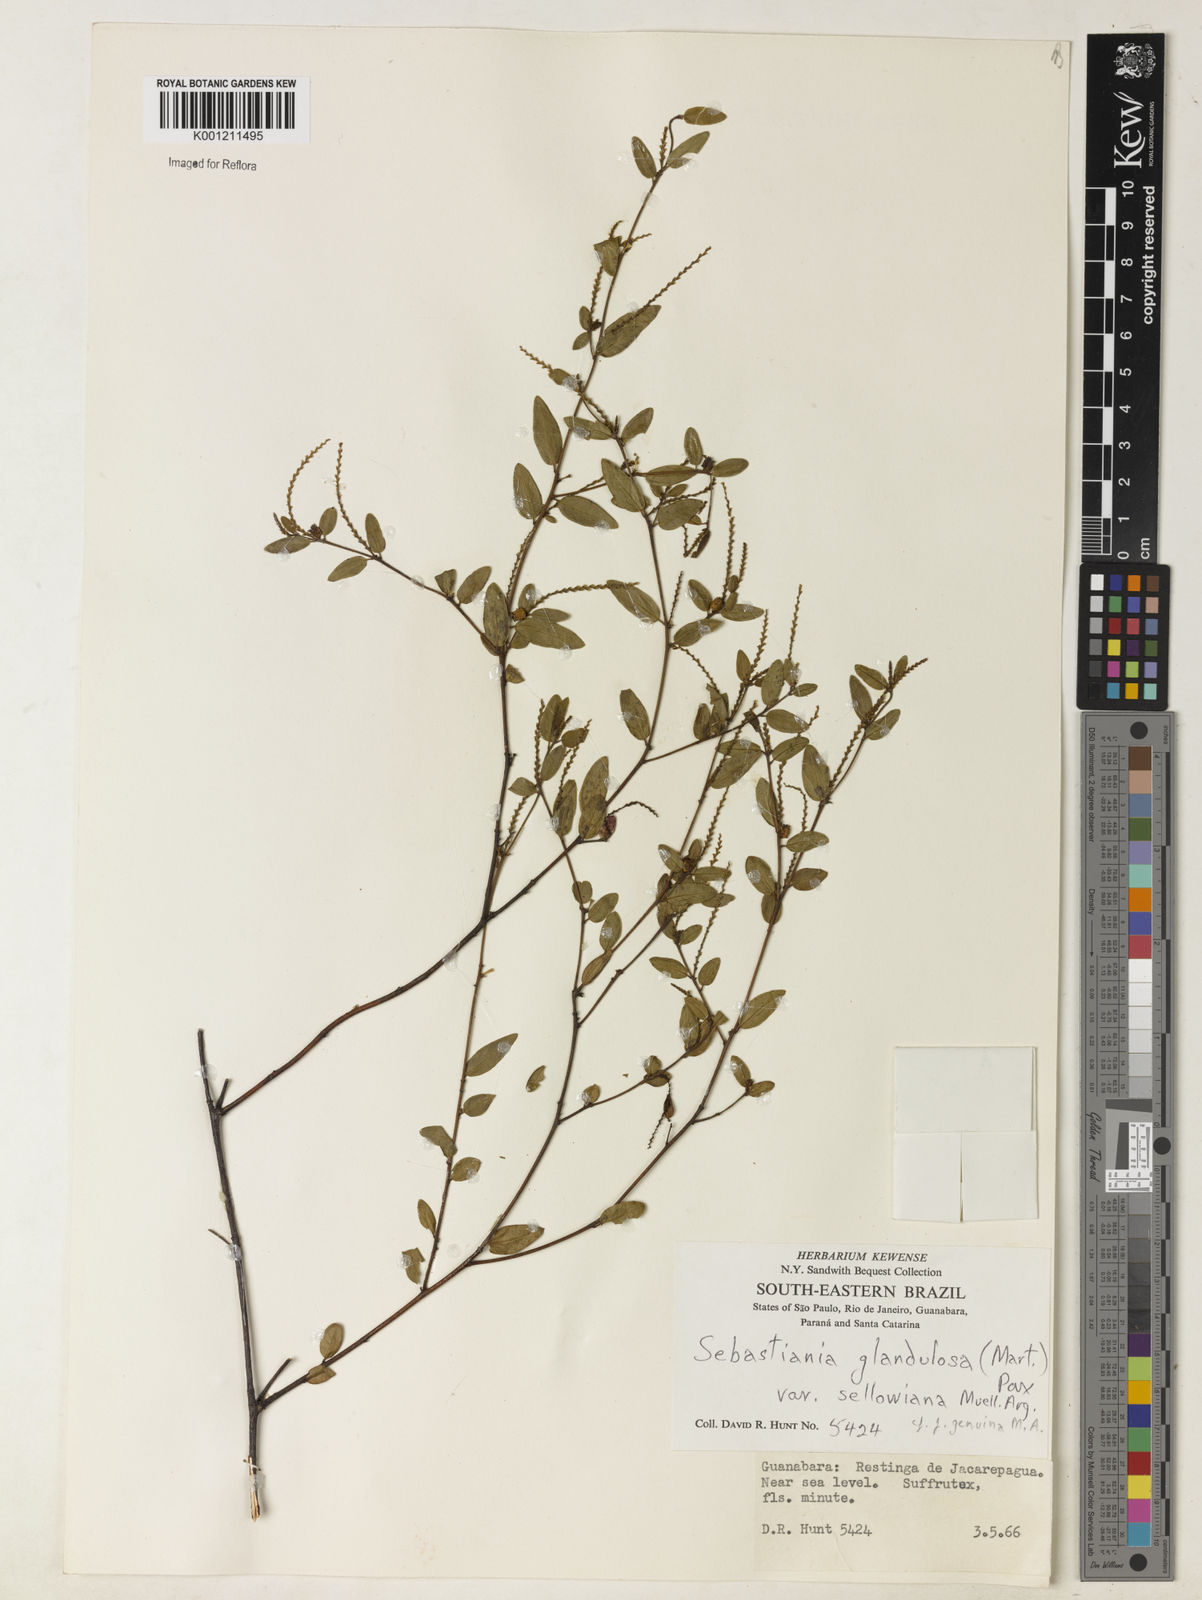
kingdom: Plantae
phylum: Tracheophyta
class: Magnoliopsida
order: Malpighiales
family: Euphorbiaceae
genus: Microstachys
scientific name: Microstachys glandulosa
